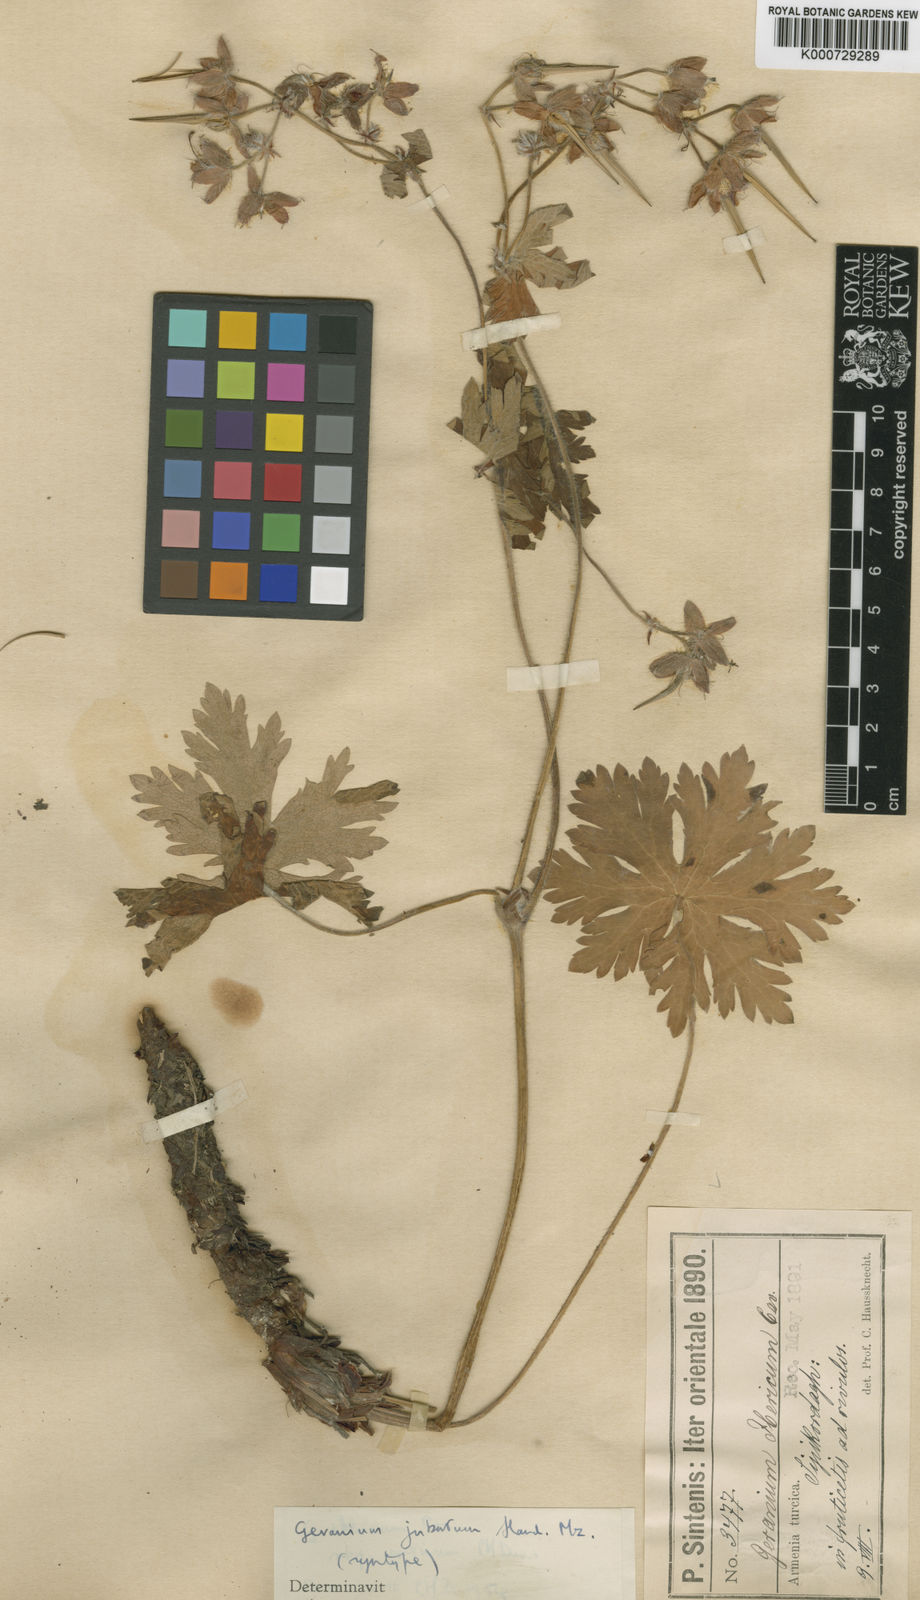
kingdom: Plantae
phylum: Tracheophyta
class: Magnoliopsida
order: Geraniales
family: Geraniaceae
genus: Geranium
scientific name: Geranium ibericum
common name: Caucasian crane's-bill
